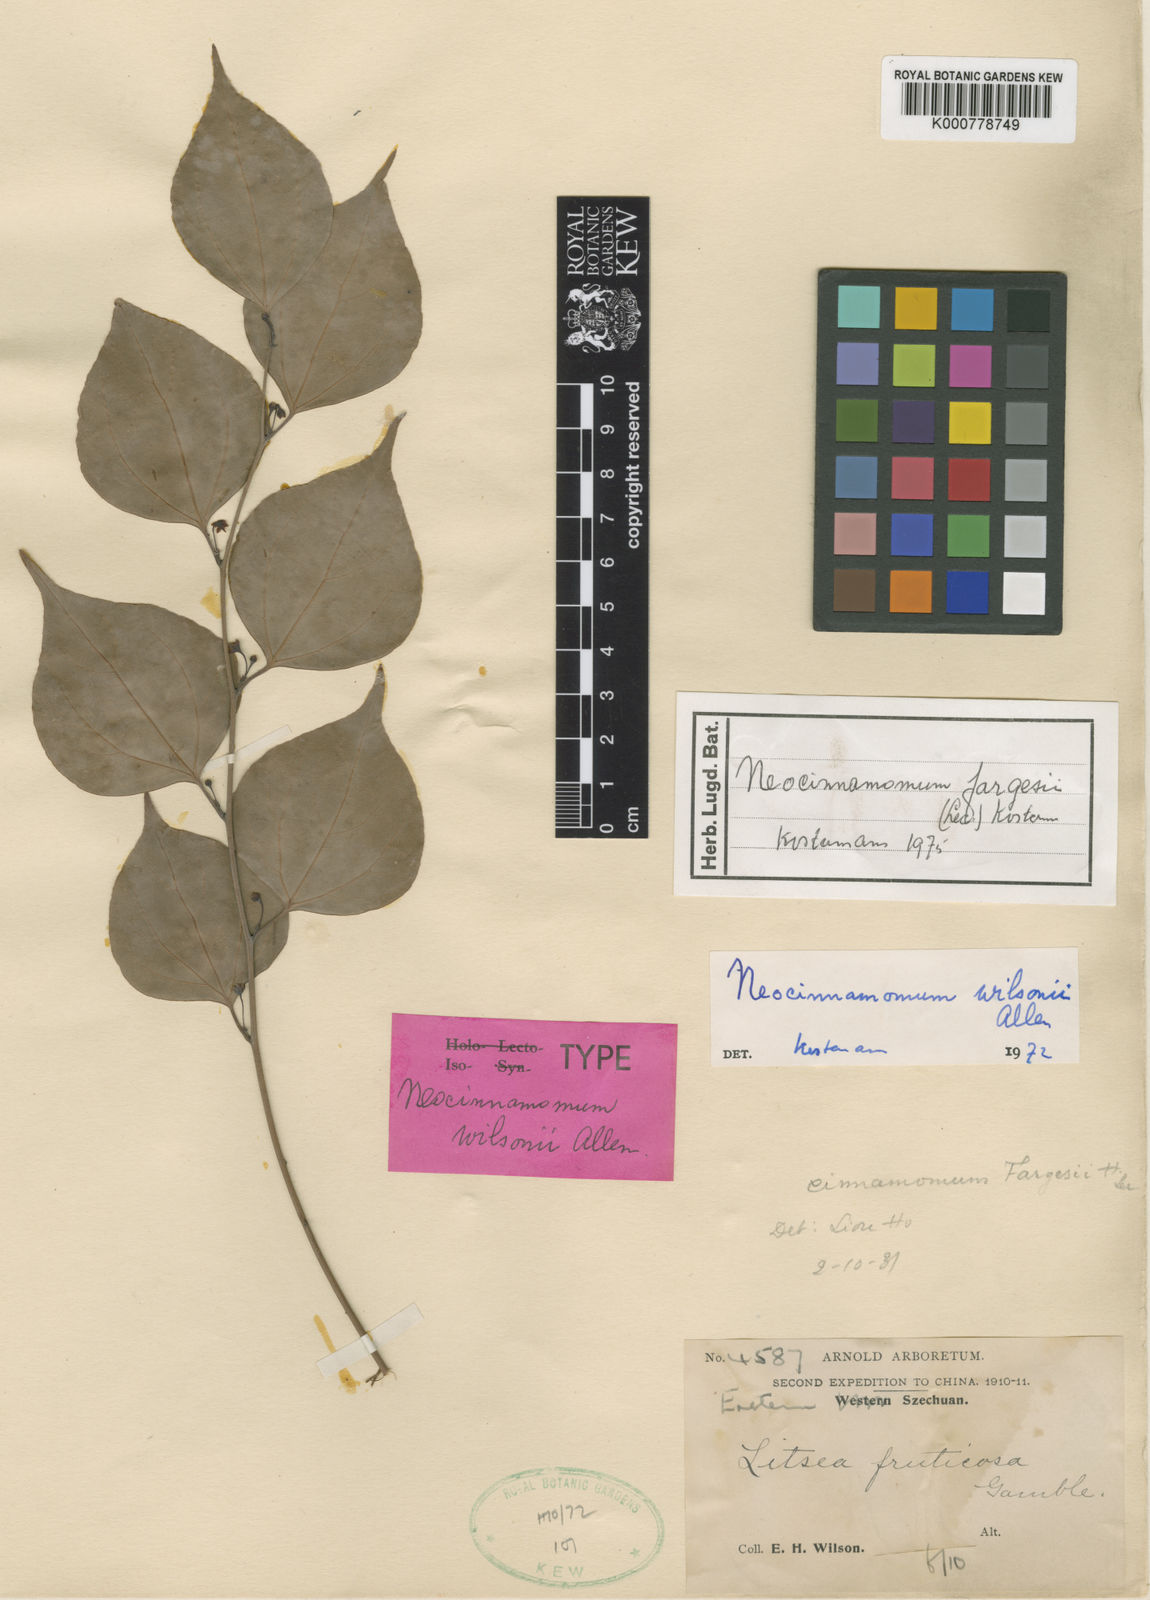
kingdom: Plantae
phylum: Tracheophyta
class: Magnoliopsida
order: Laurales
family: Lauraceae
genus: Neocinnamomum
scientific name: Neocinnamomum fargesii
